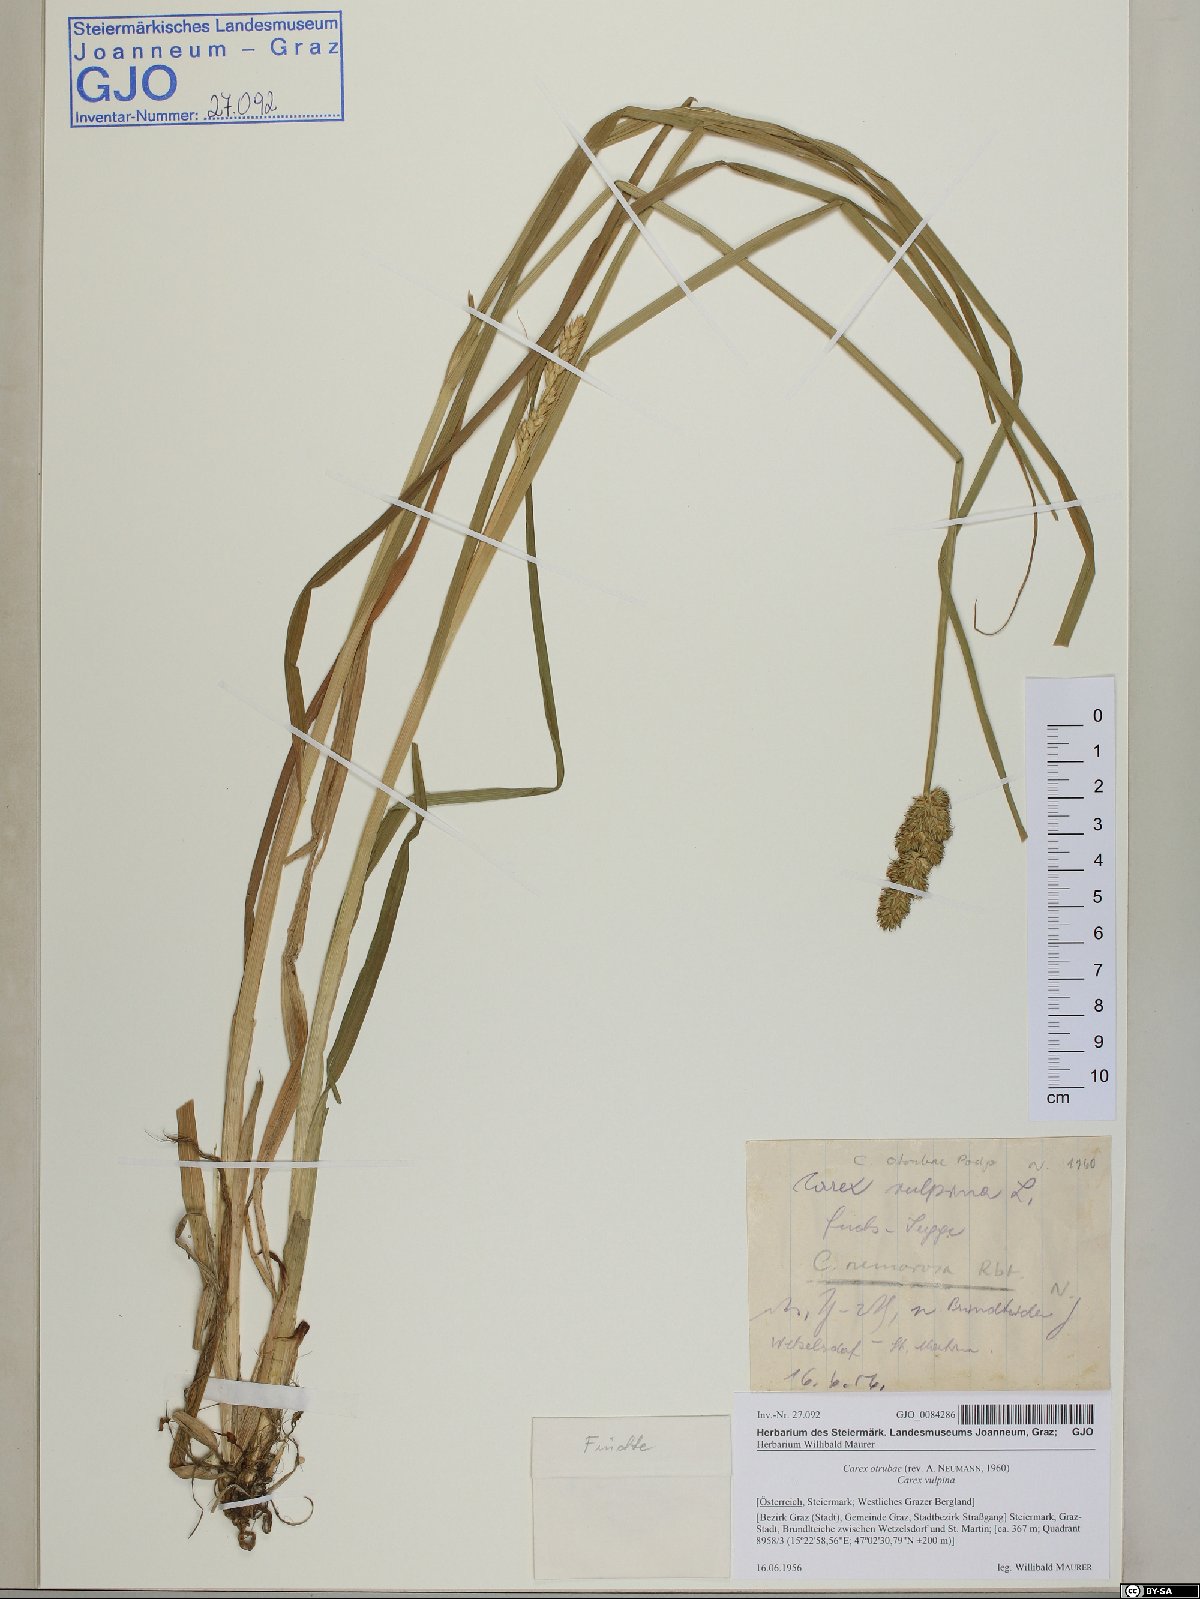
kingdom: Plantae
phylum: Tracheophyta
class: Liliopsida
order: Poales
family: Cyperaceae
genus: Carex
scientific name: Carex otrubae
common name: False fox-sedge
